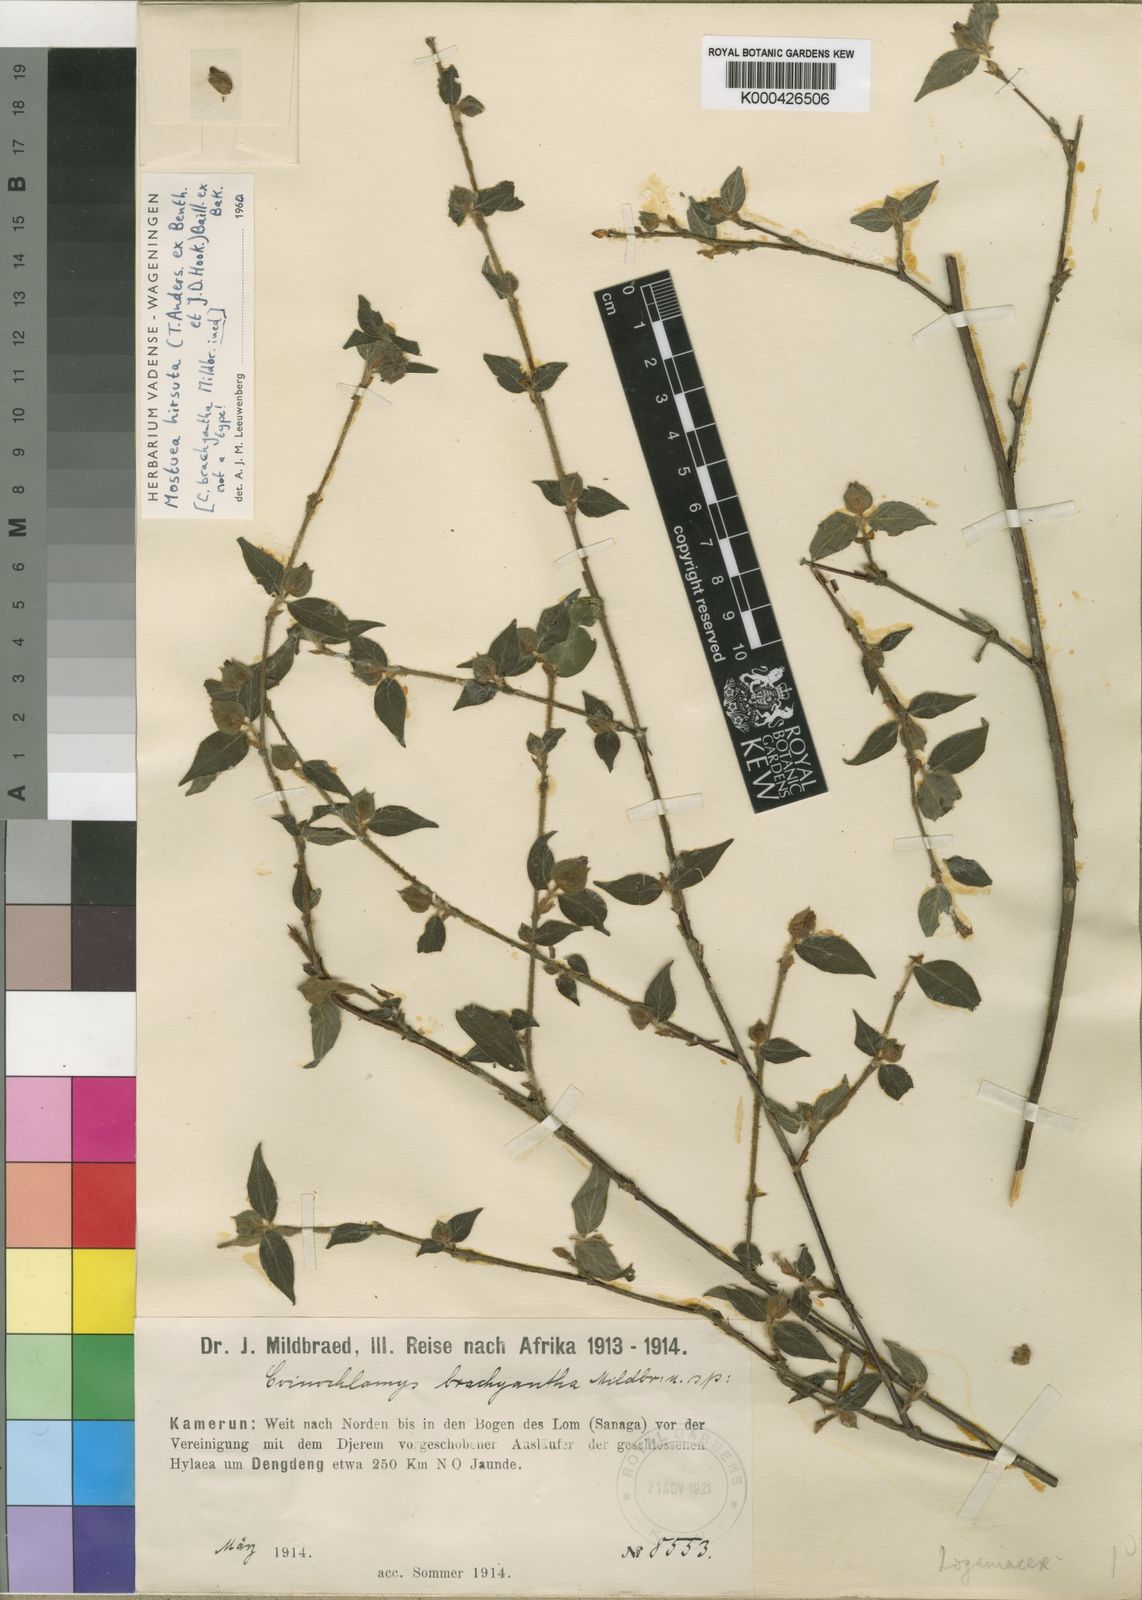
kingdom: Plantae
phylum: Tracheophyta
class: Magnoliopsida
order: Gentianales
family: Gelsemiaceae
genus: Mostuea
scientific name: Mostuea
